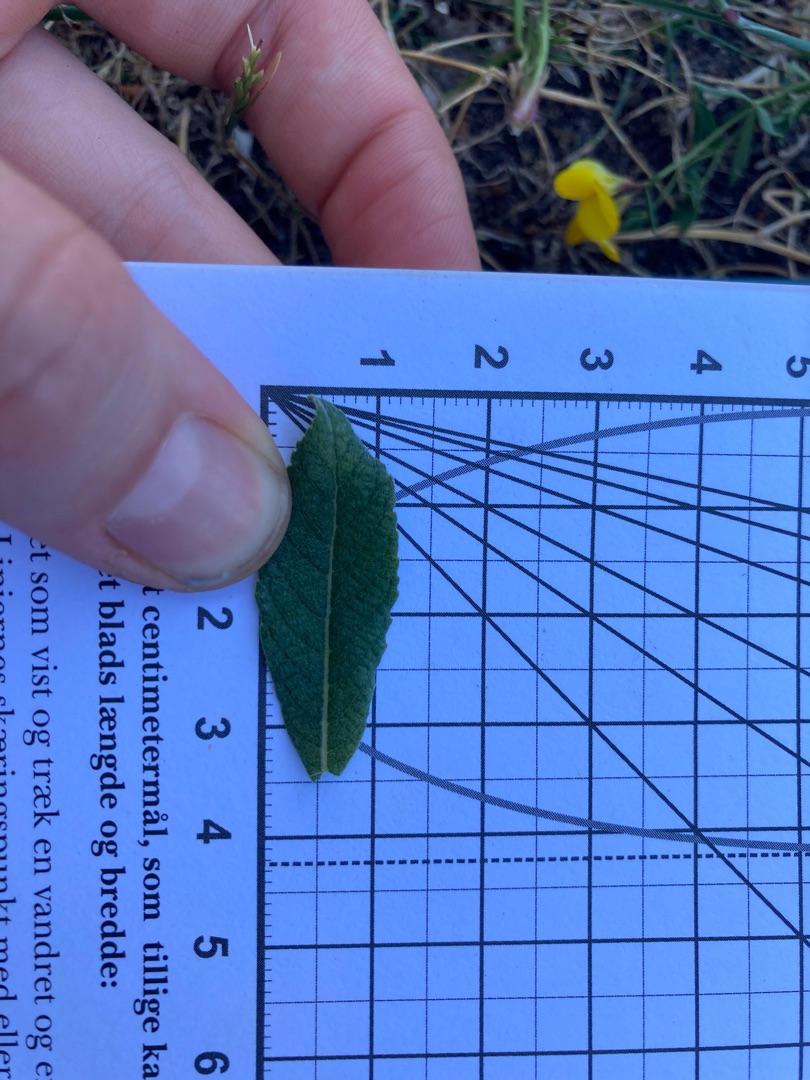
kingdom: Plantae
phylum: Tracheophyta
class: Magnoliopsida
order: Malpighiales
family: Salicaceae
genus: Salix
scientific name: Salix aurita
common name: Øret pil
